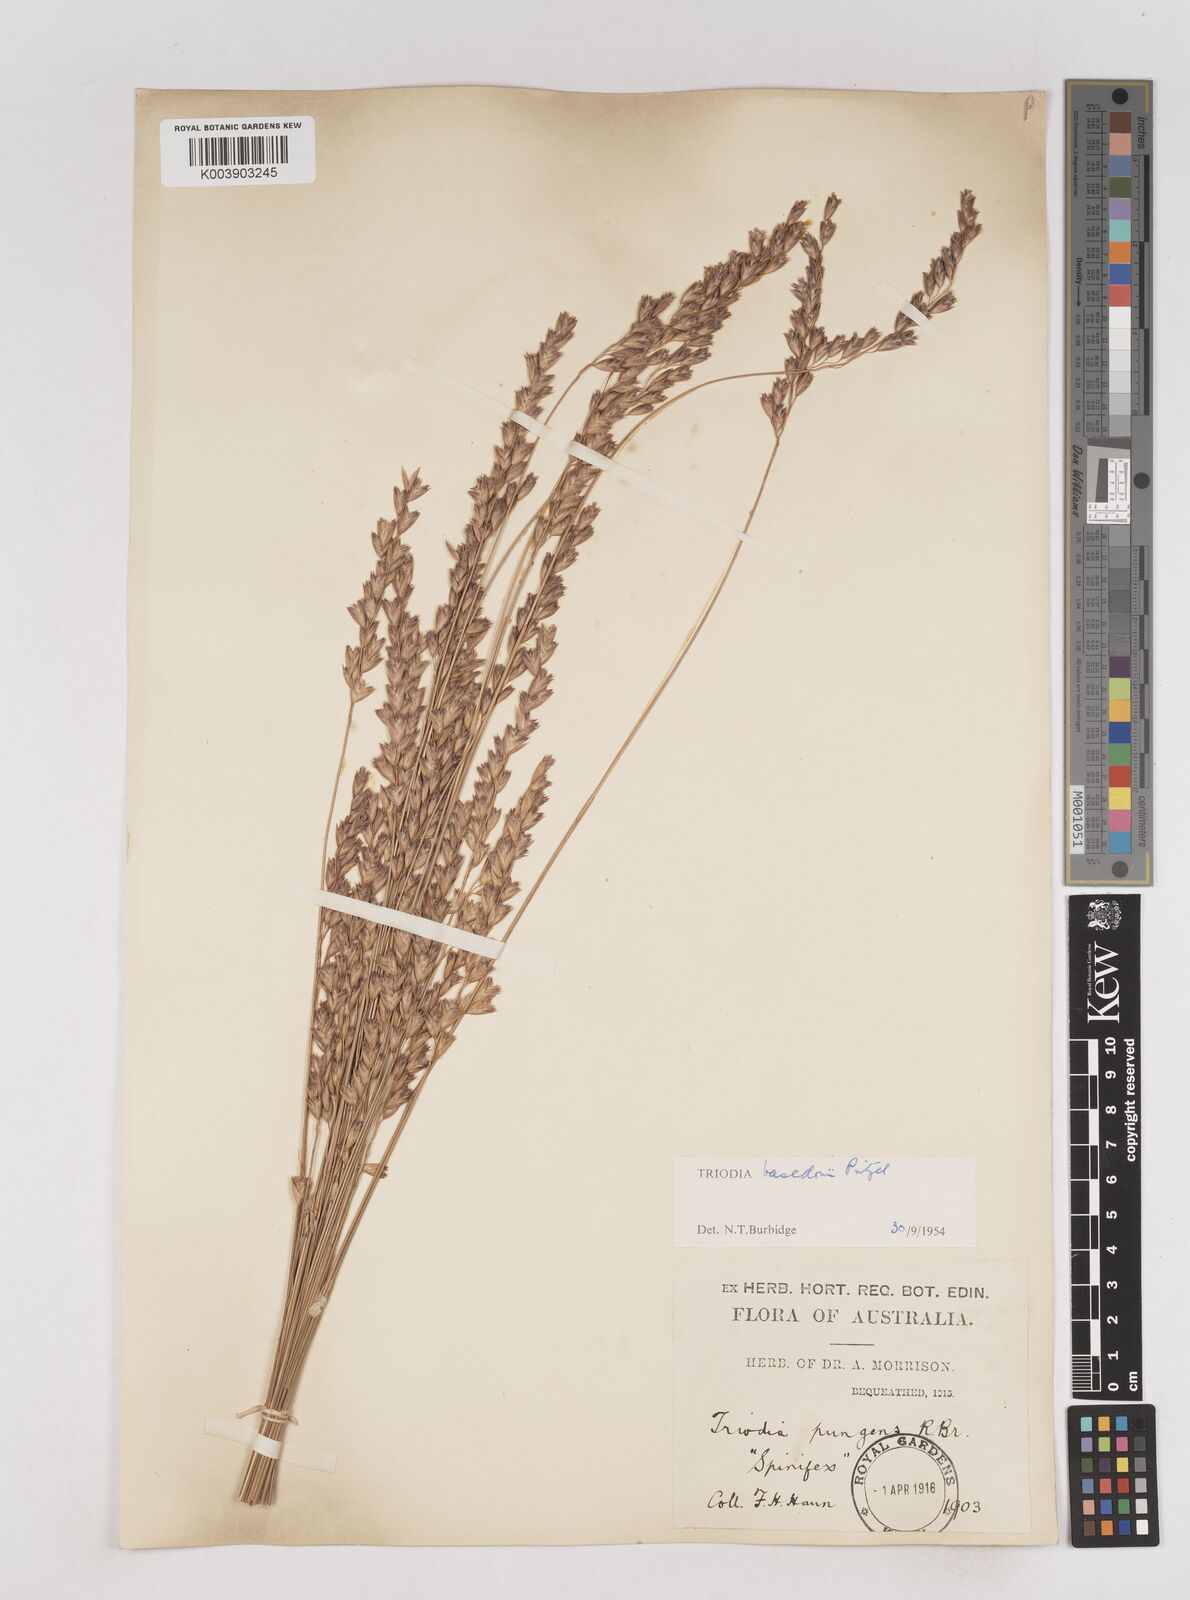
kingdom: Plantae
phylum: Tracheophyta
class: Liliopsida
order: Poales
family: Poaceae
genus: Triodia
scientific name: Triodia basedowii
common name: Hard spinifex
